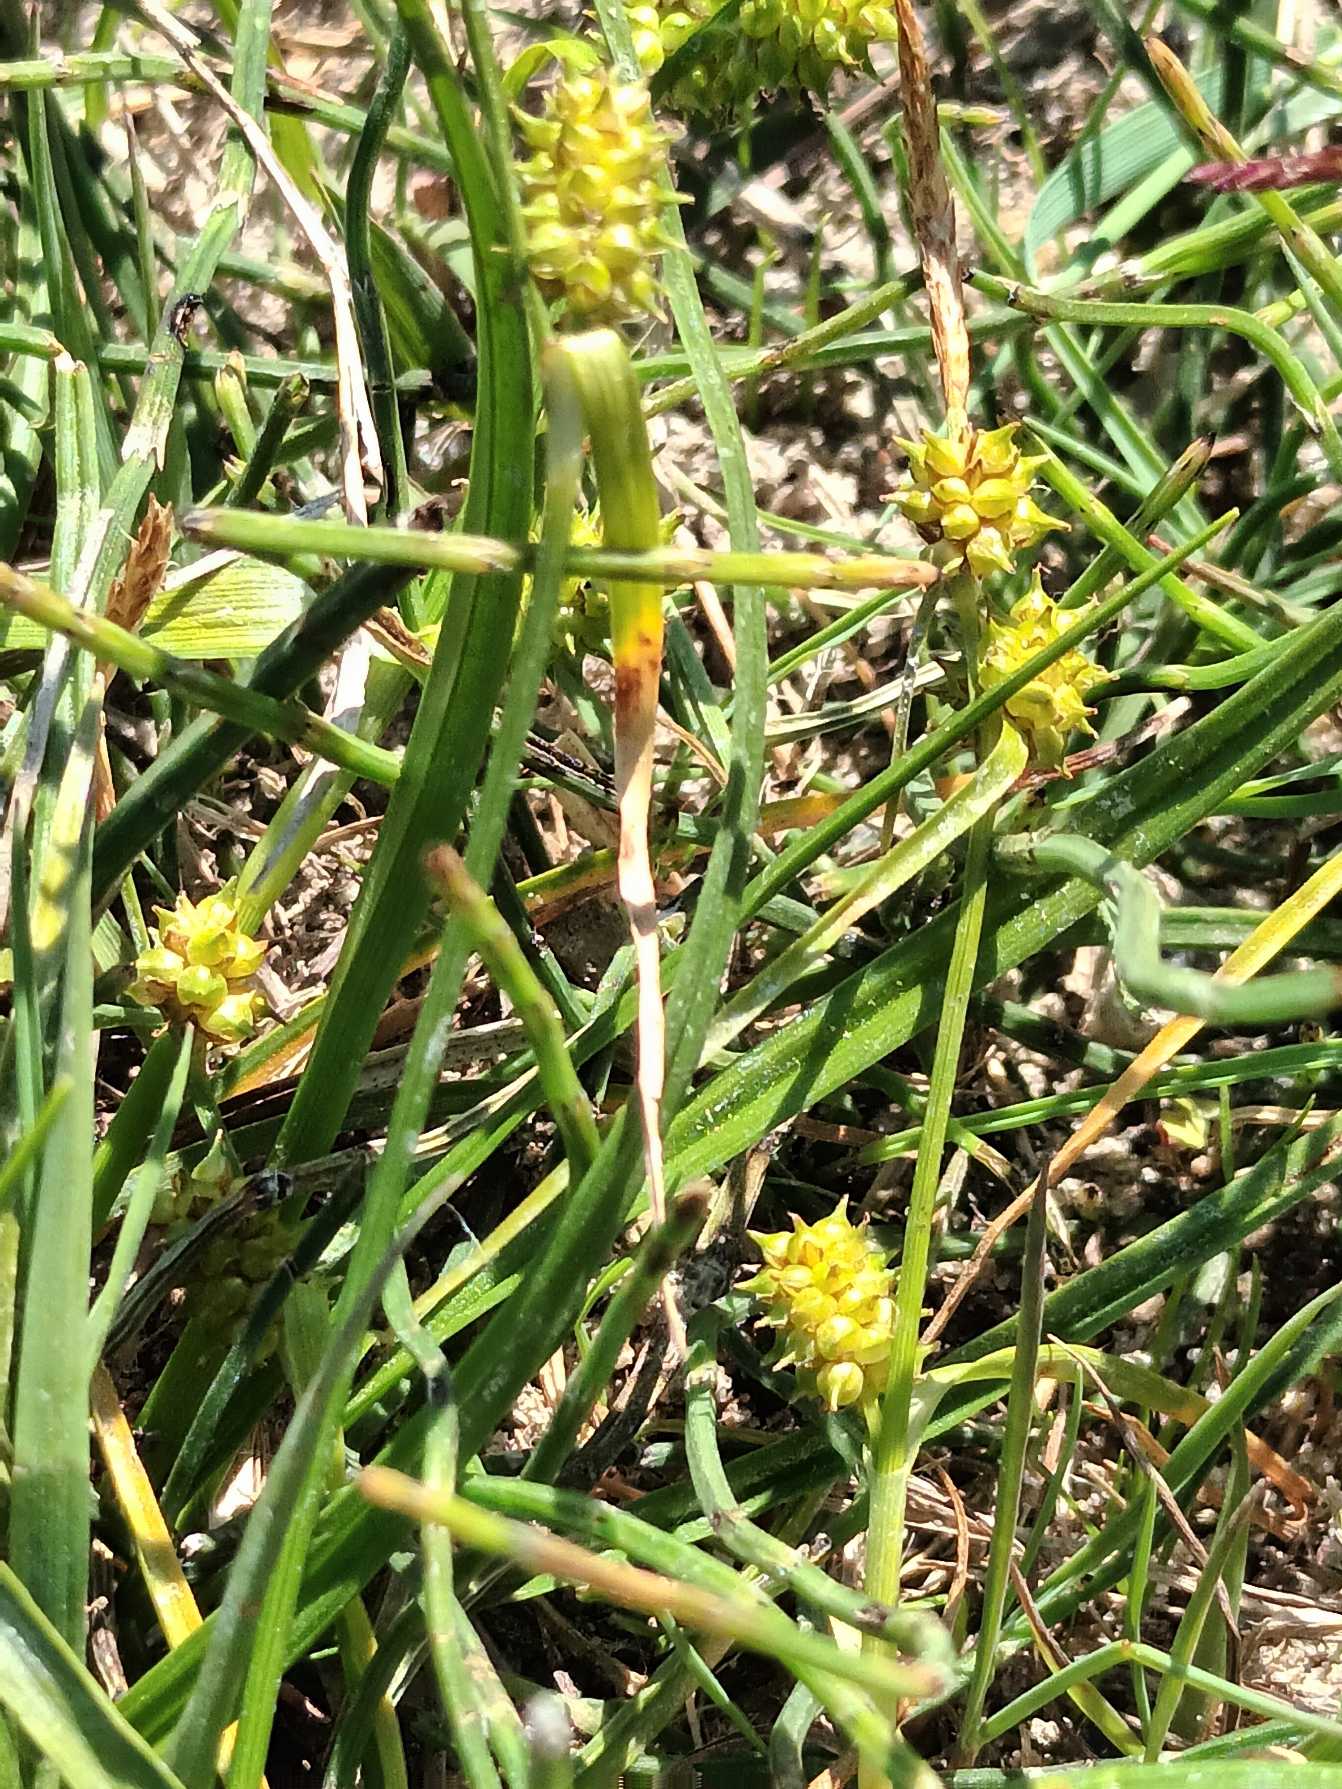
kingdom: Plantae
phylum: Tracheophyta
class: Liliopsida
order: Poales
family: Cyperaceae
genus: Carex
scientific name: Carex oederi
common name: Høst-star
